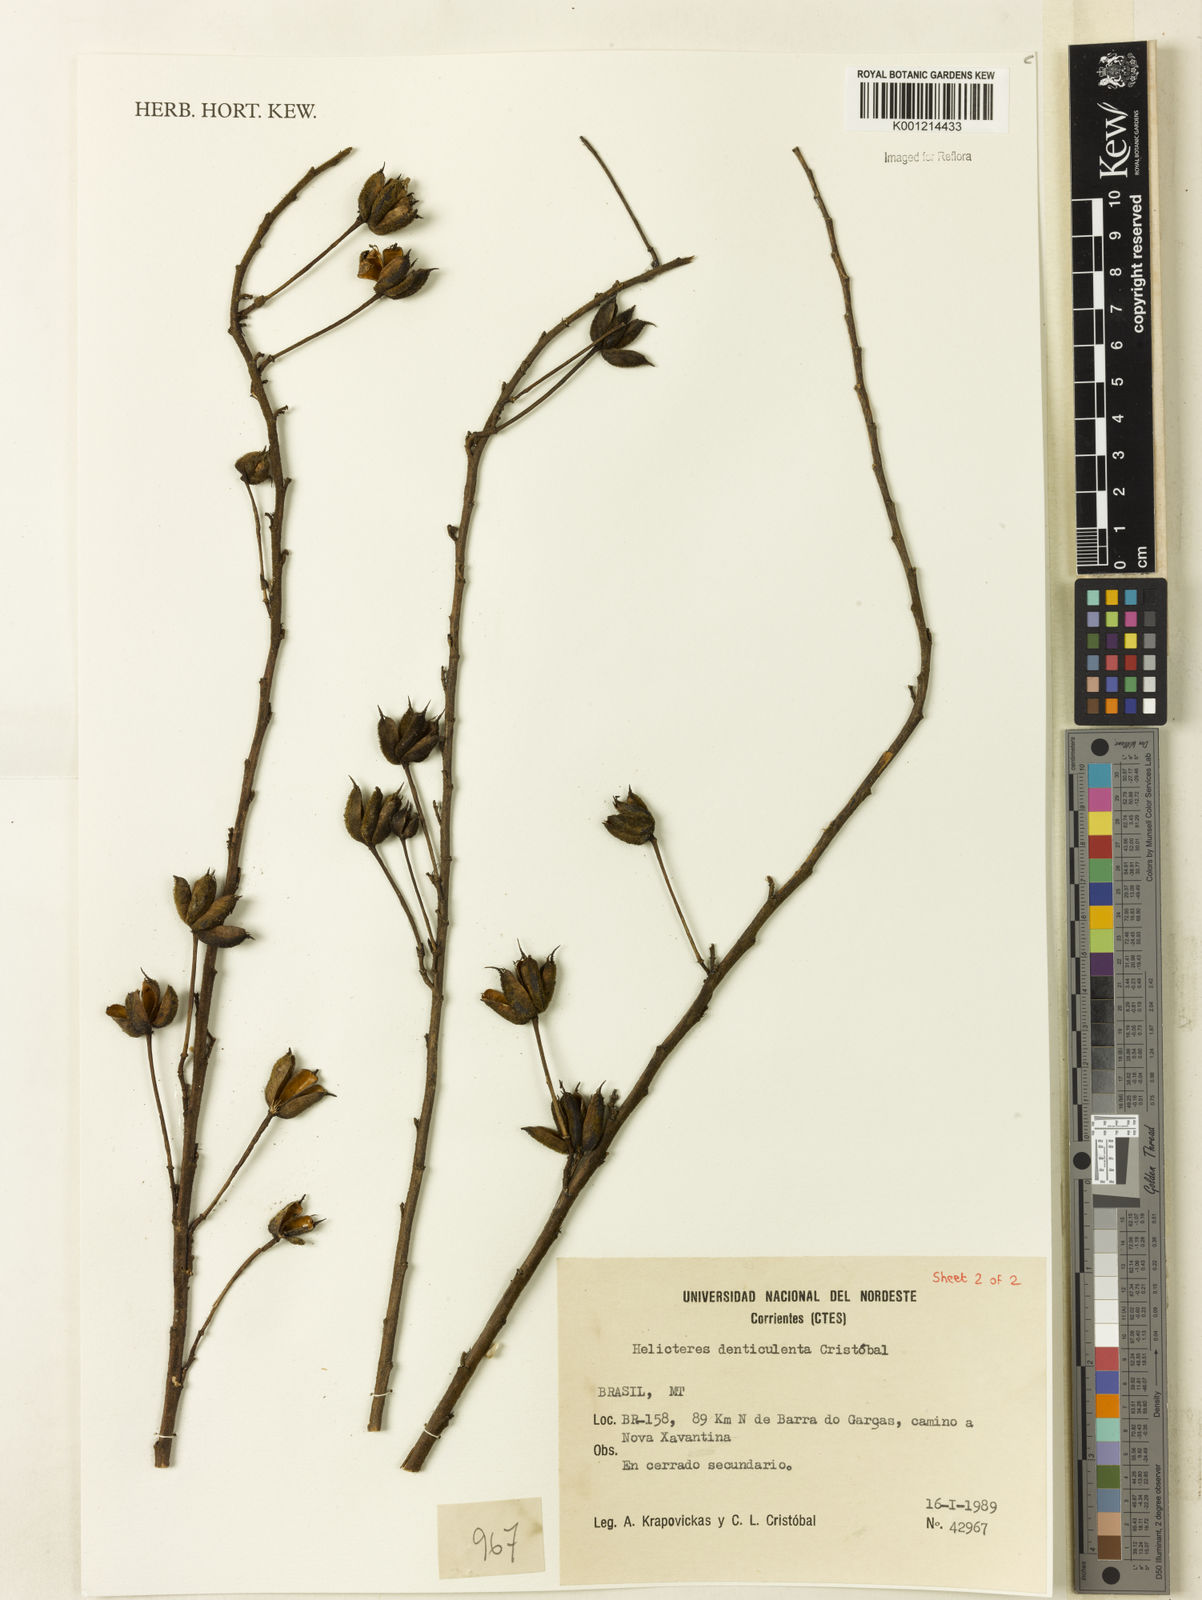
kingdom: Plantae
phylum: Tracheophyta
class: Magnoliopsida
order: Malvales
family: Malvaceae
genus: Helicteres
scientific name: Helicteres
